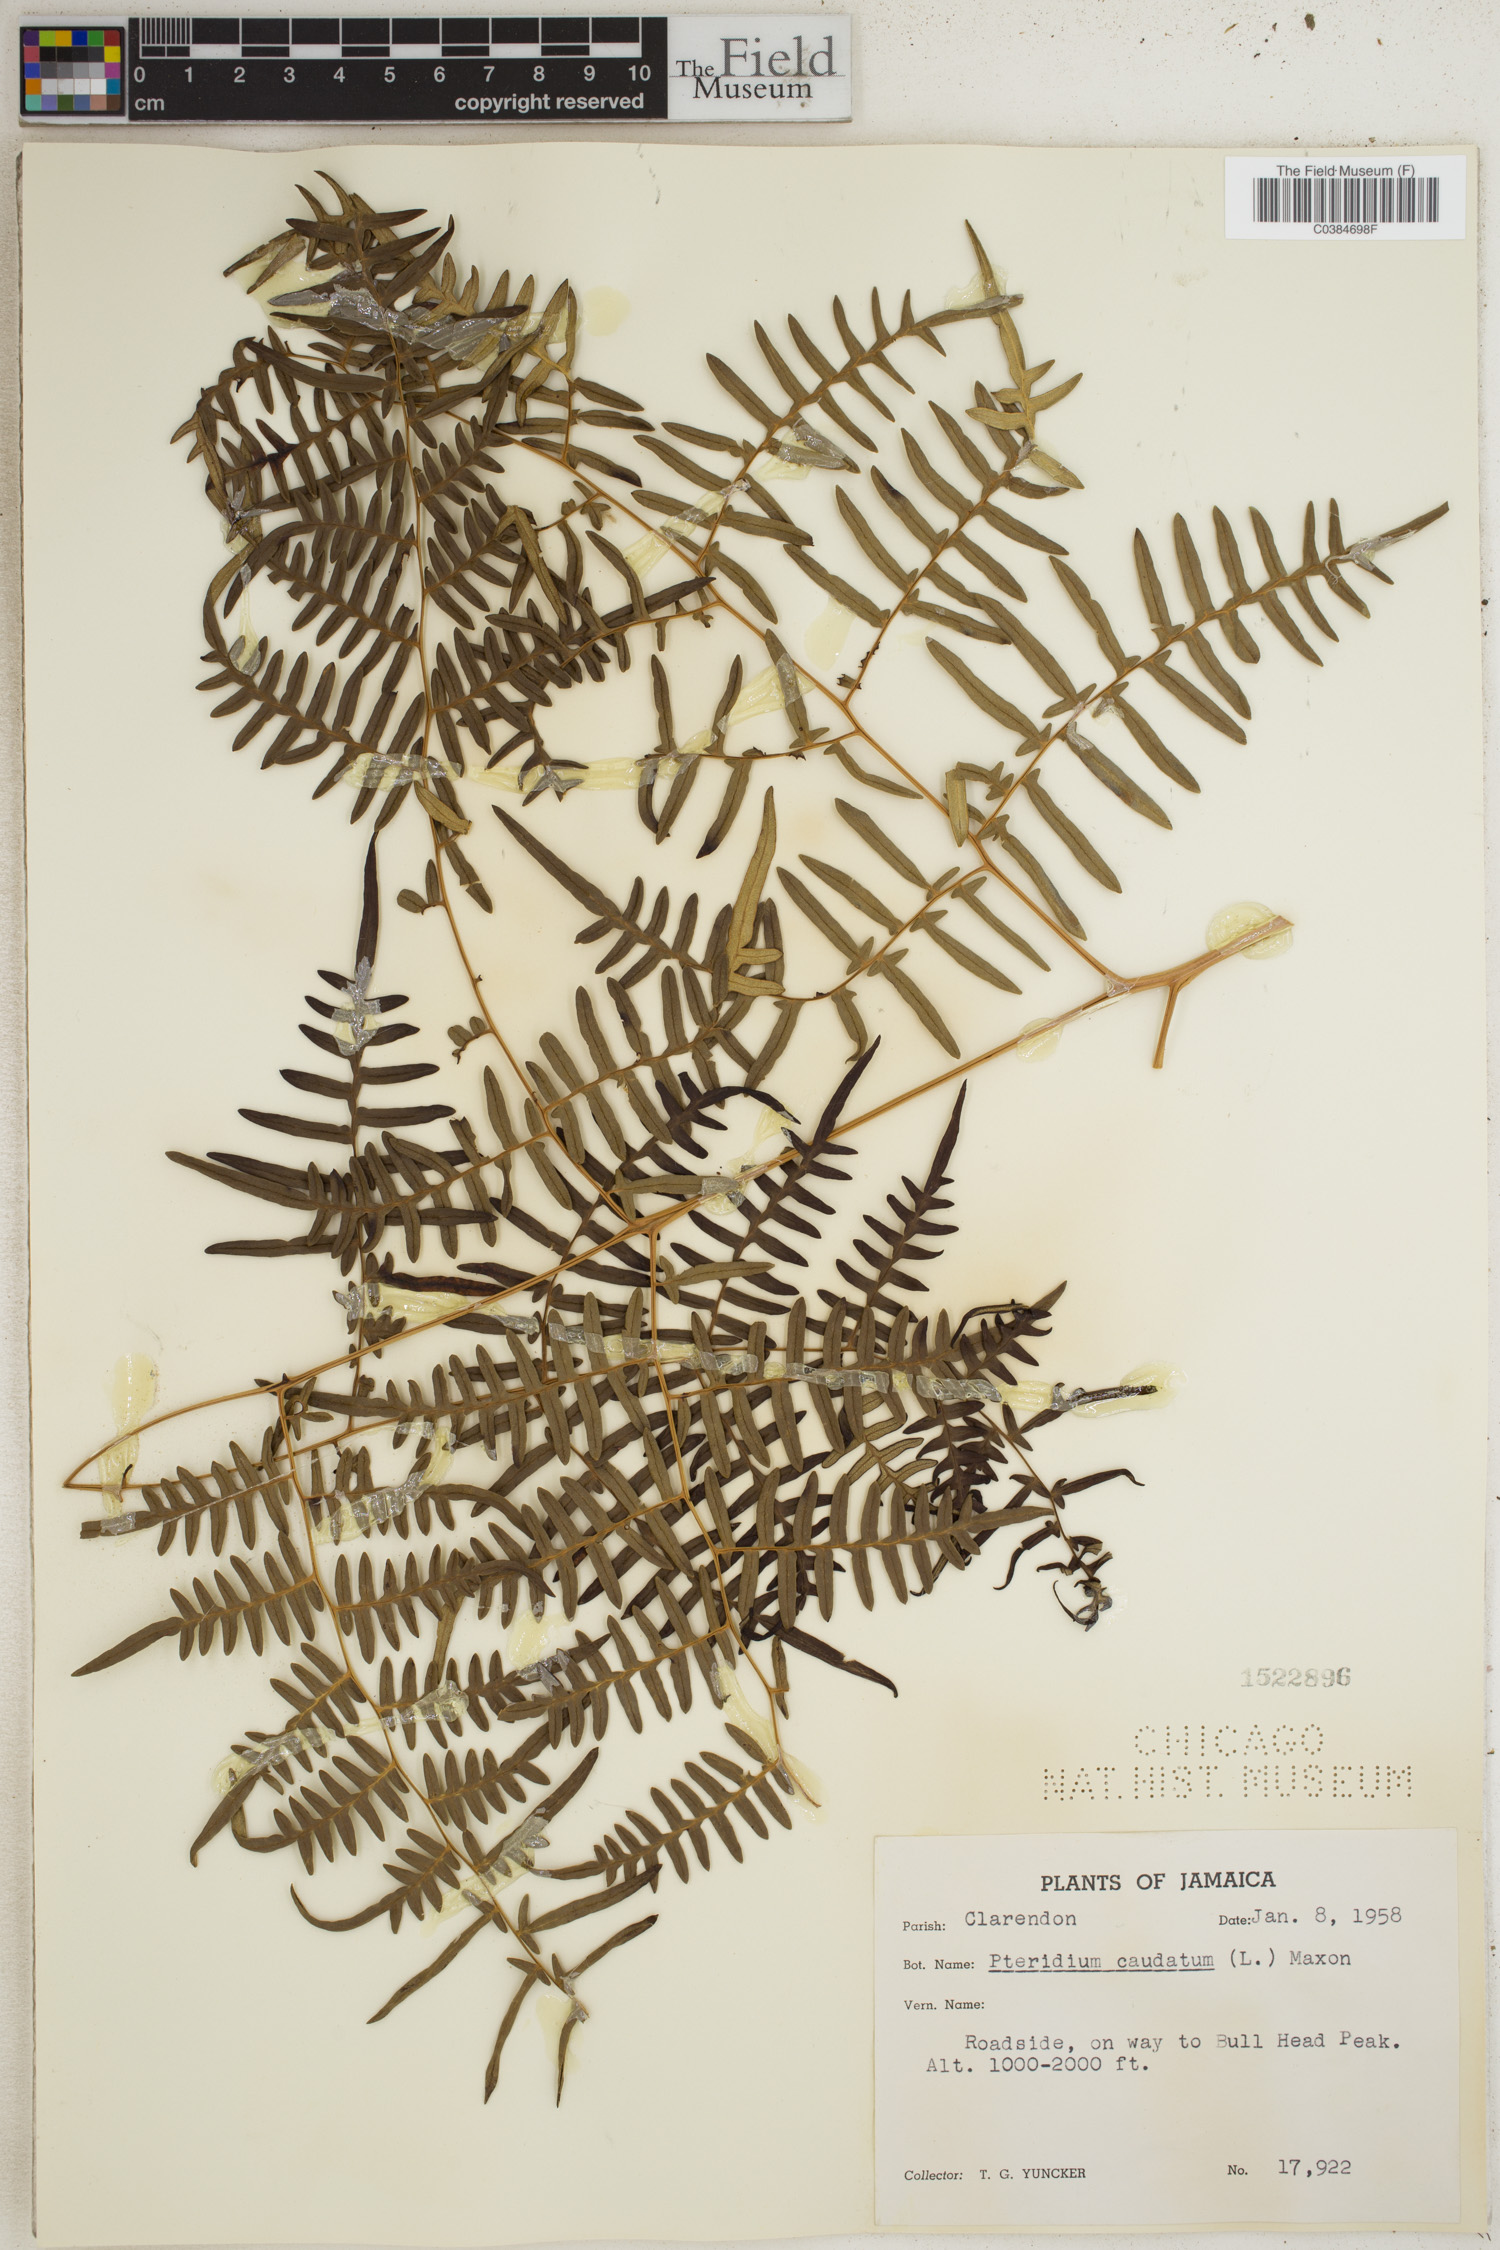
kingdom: Plantae
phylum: Tracheophyta
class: Polypodiopsida
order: Polypodiales
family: Dennstaedtiaceae
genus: Pteridium
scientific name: Pteridium caudatum
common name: Southern bracken fern
